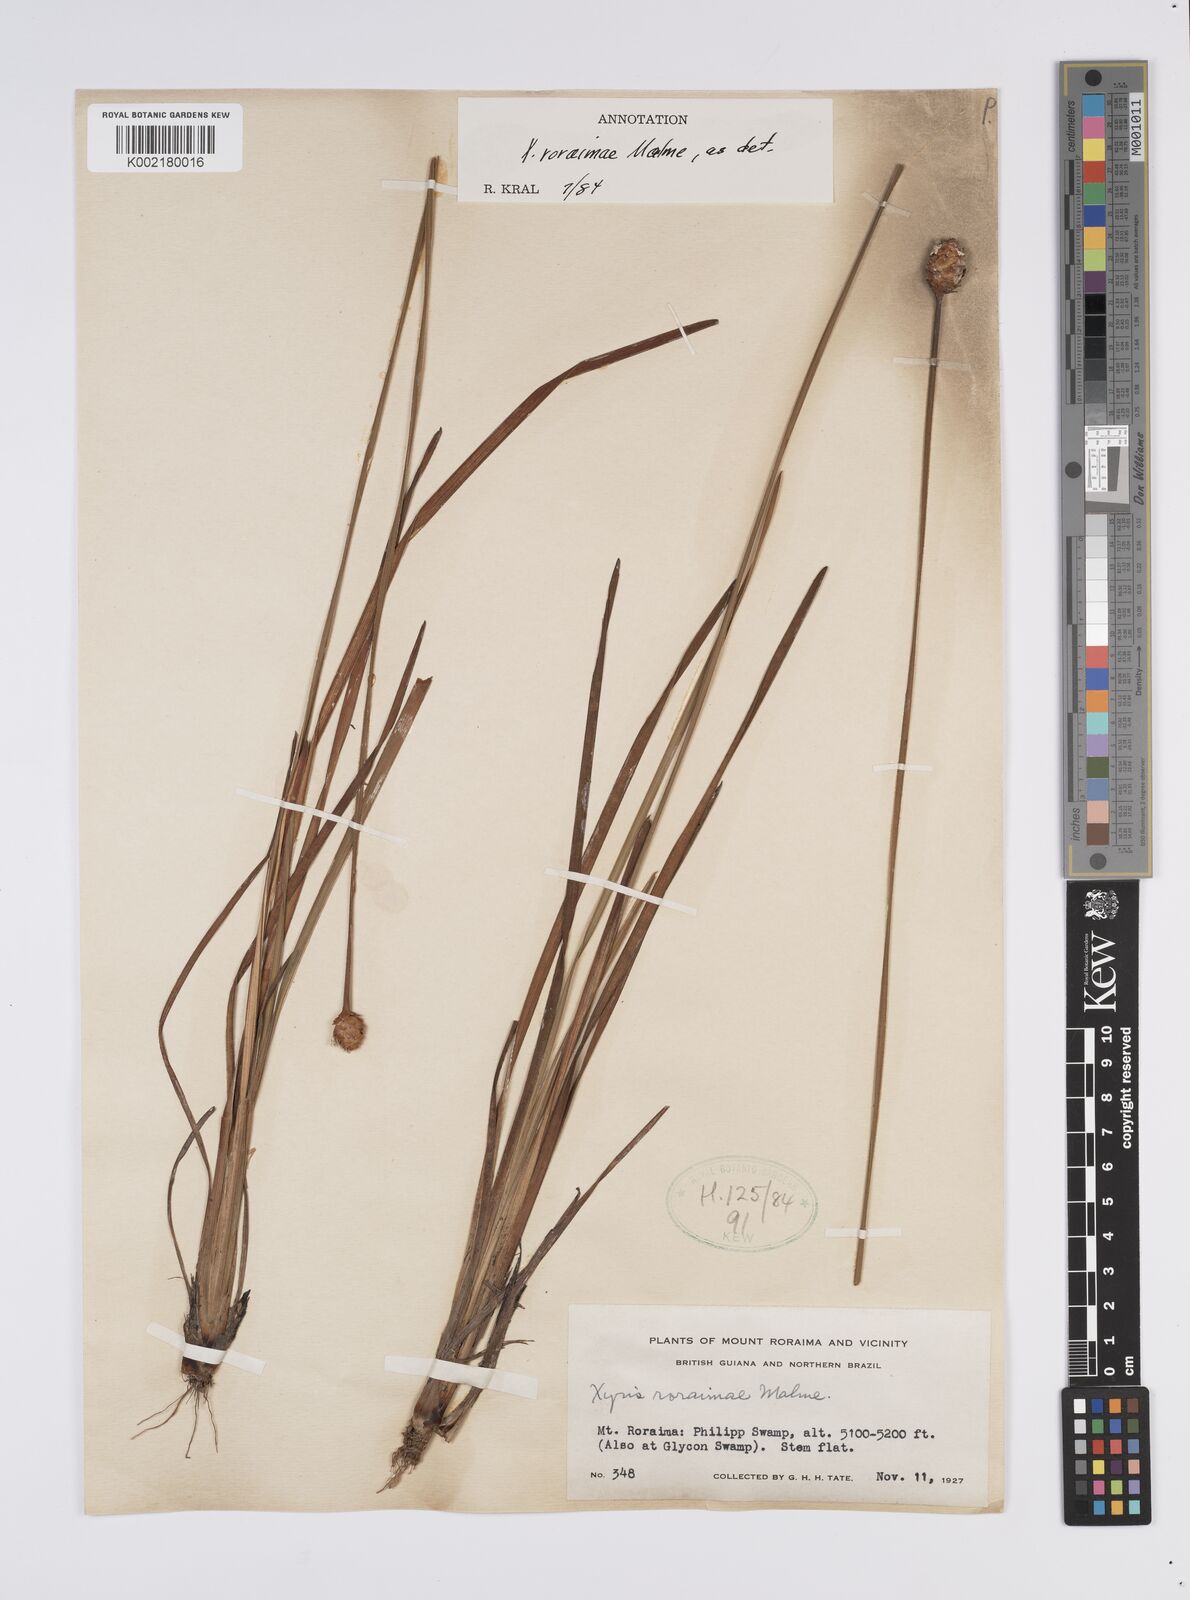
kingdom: Plantae
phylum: Tracheophyta
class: Liliopsida
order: Poales
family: Xyridaceae
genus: Xyris
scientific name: Xyris roraimae
